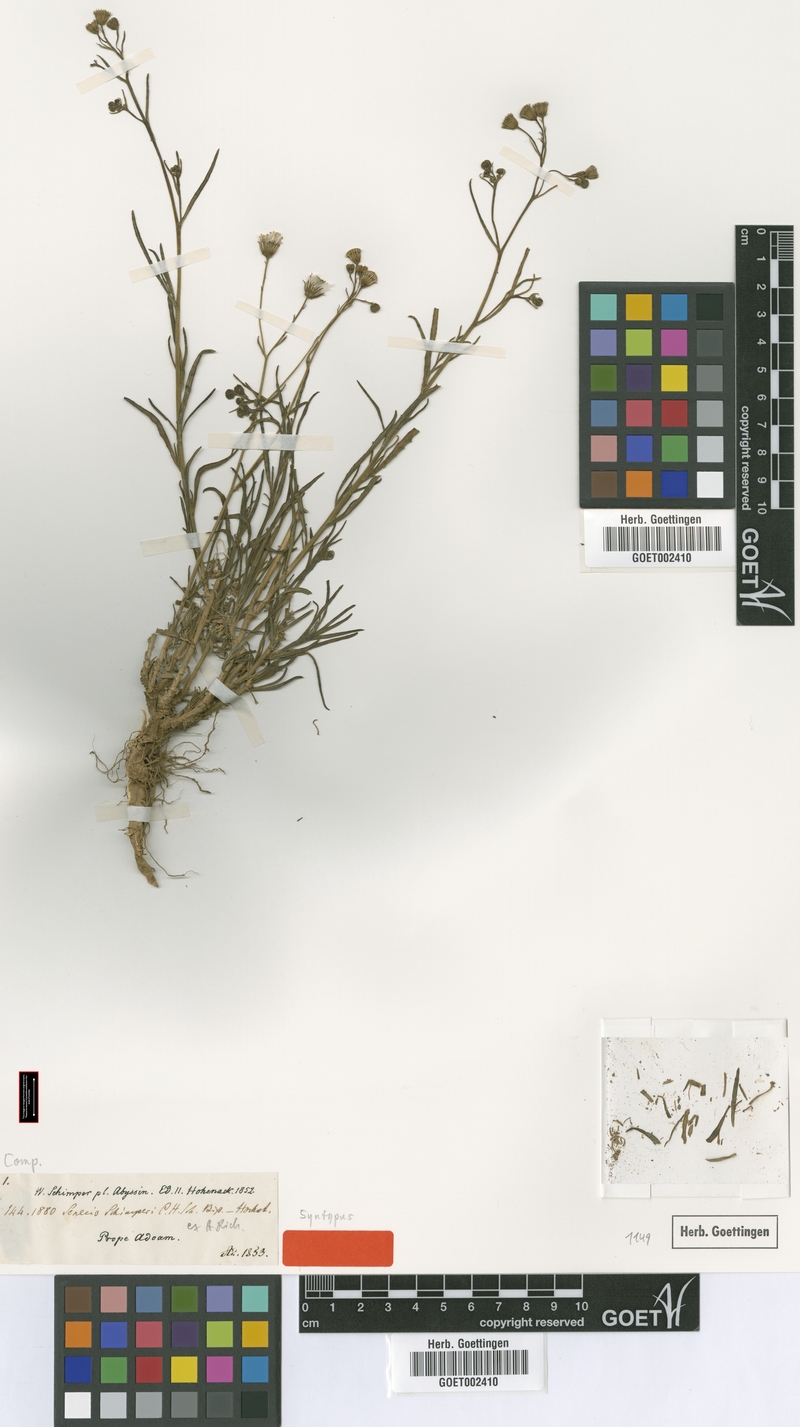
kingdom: Plantae
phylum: Tracheophyta
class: Magnoliopsida
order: Asterales
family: Asteraceae
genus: Senecio
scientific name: Senecio schimperi
